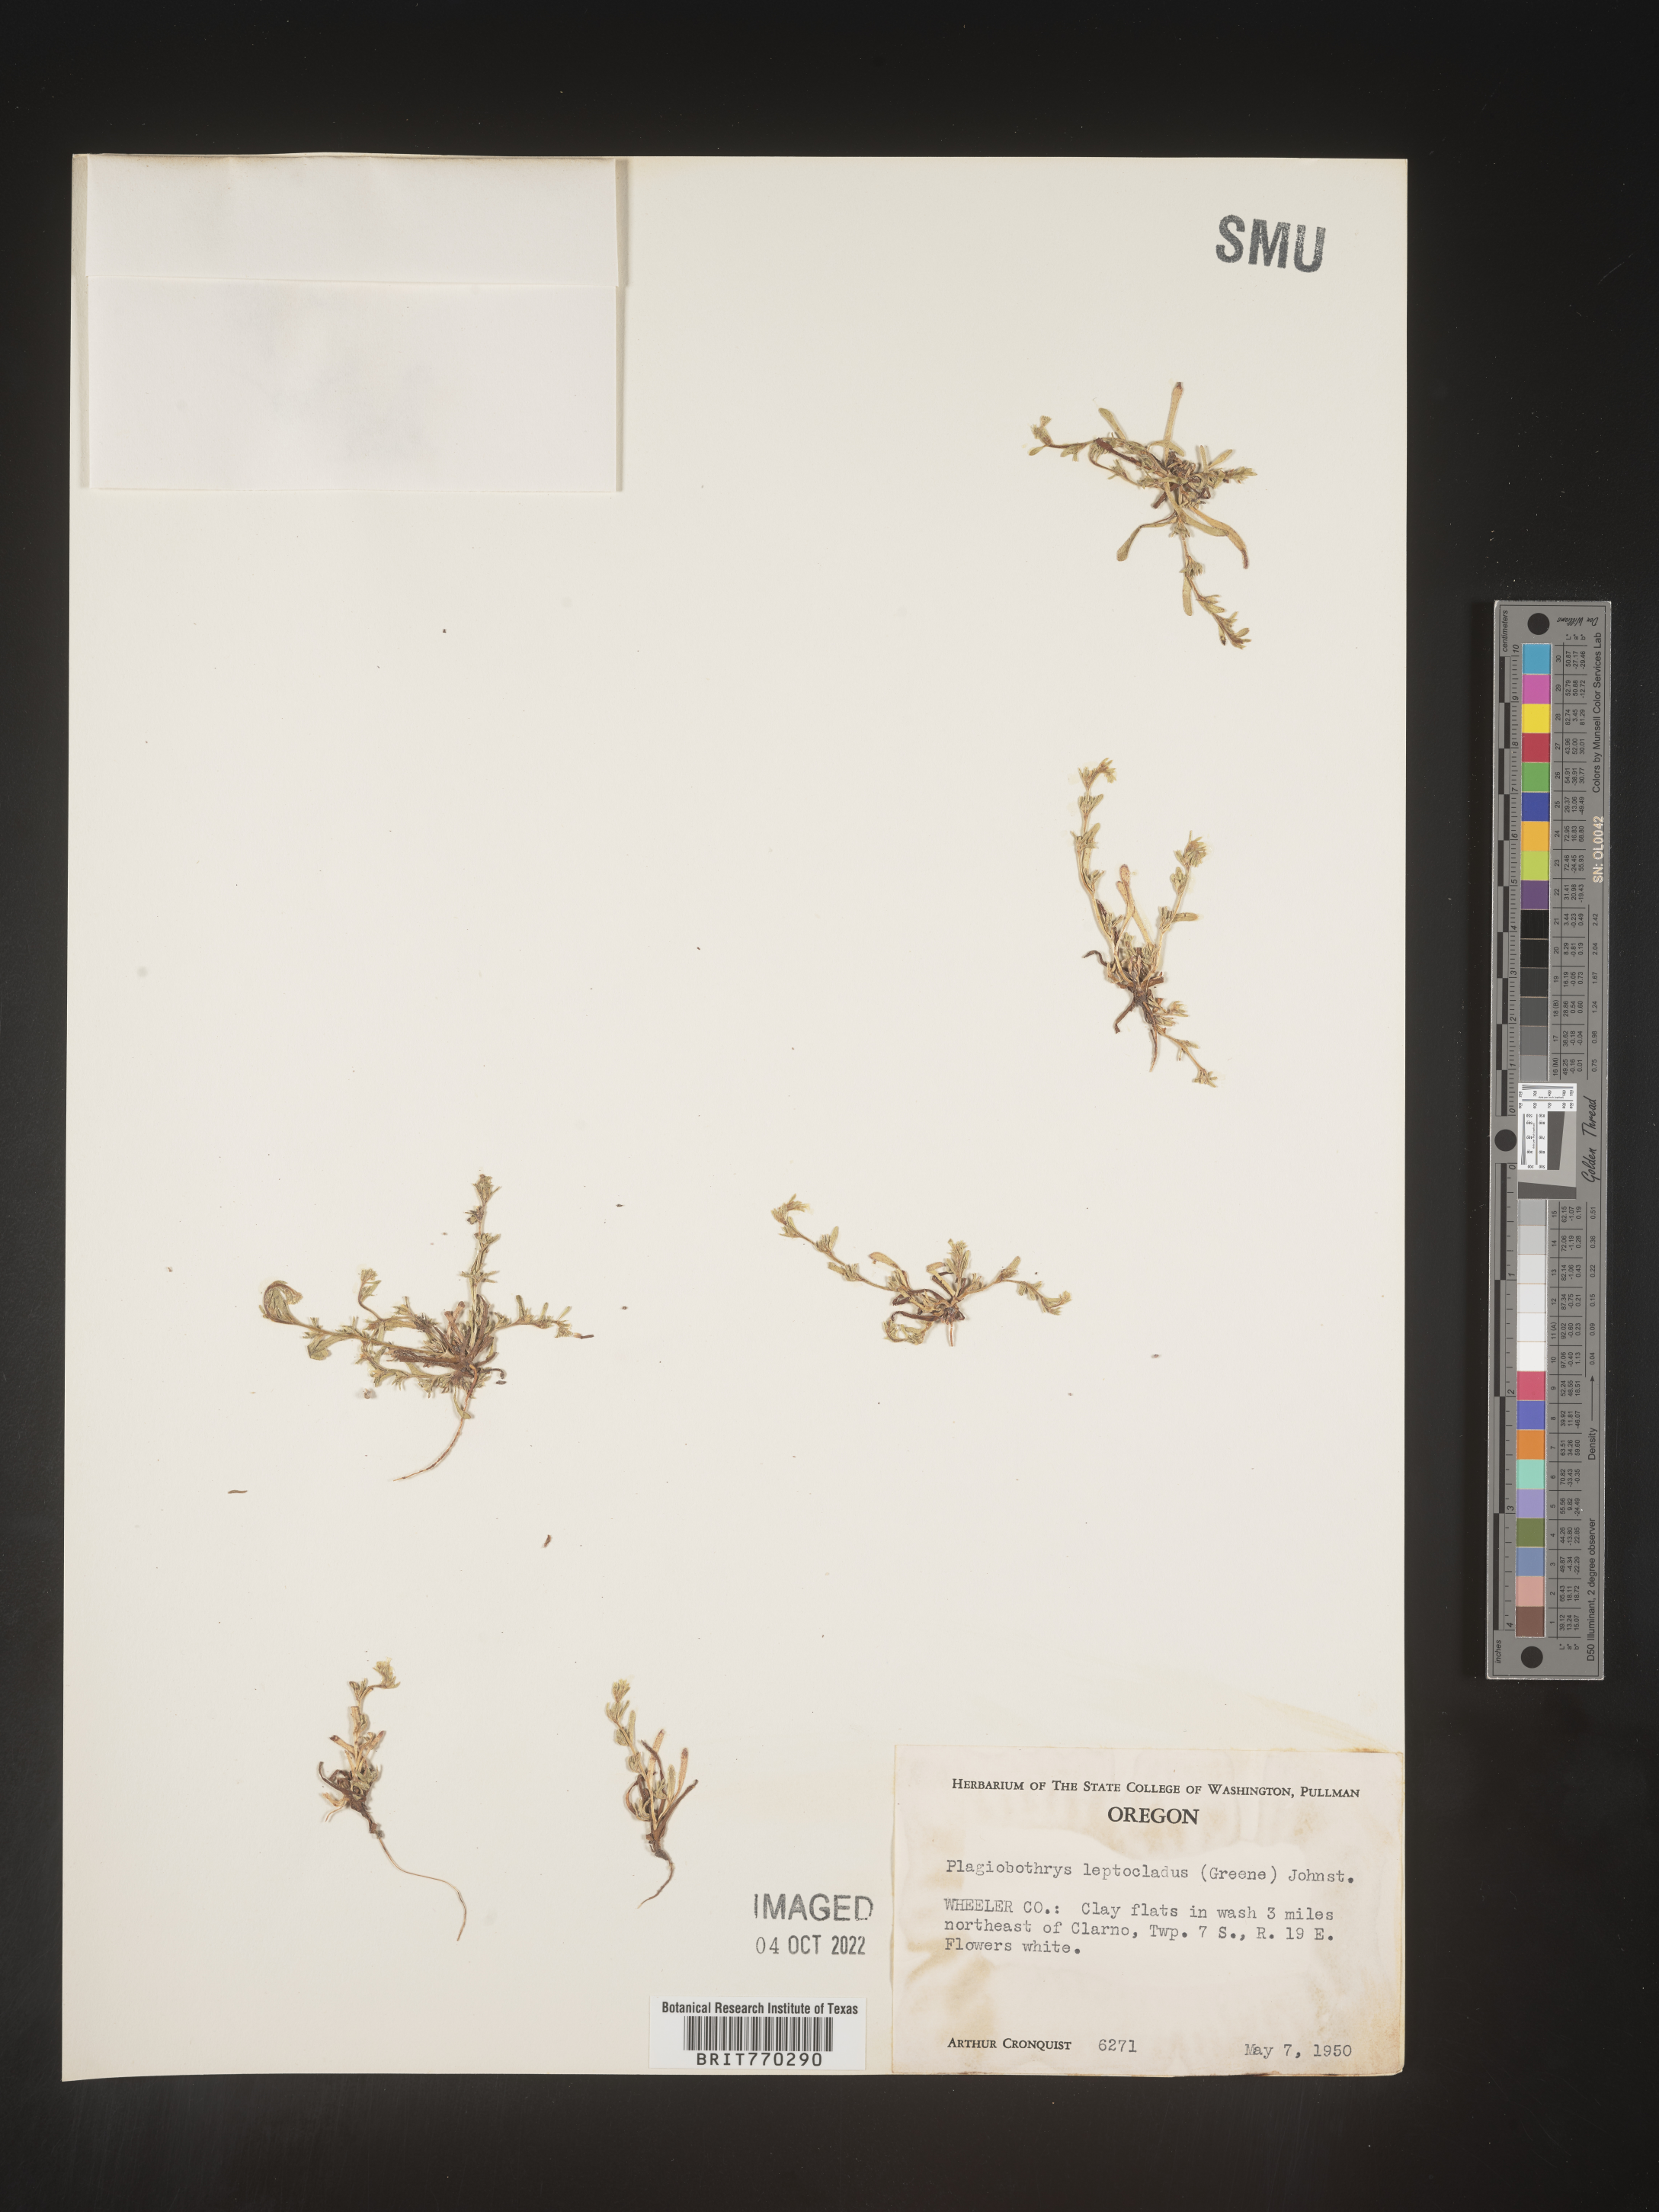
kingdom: Plantae
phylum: Tracheophyta
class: Magnoliopsida
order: Boraginales
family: Boraginaceae
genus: Plagiobothrys
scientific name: Plagiobothrys
